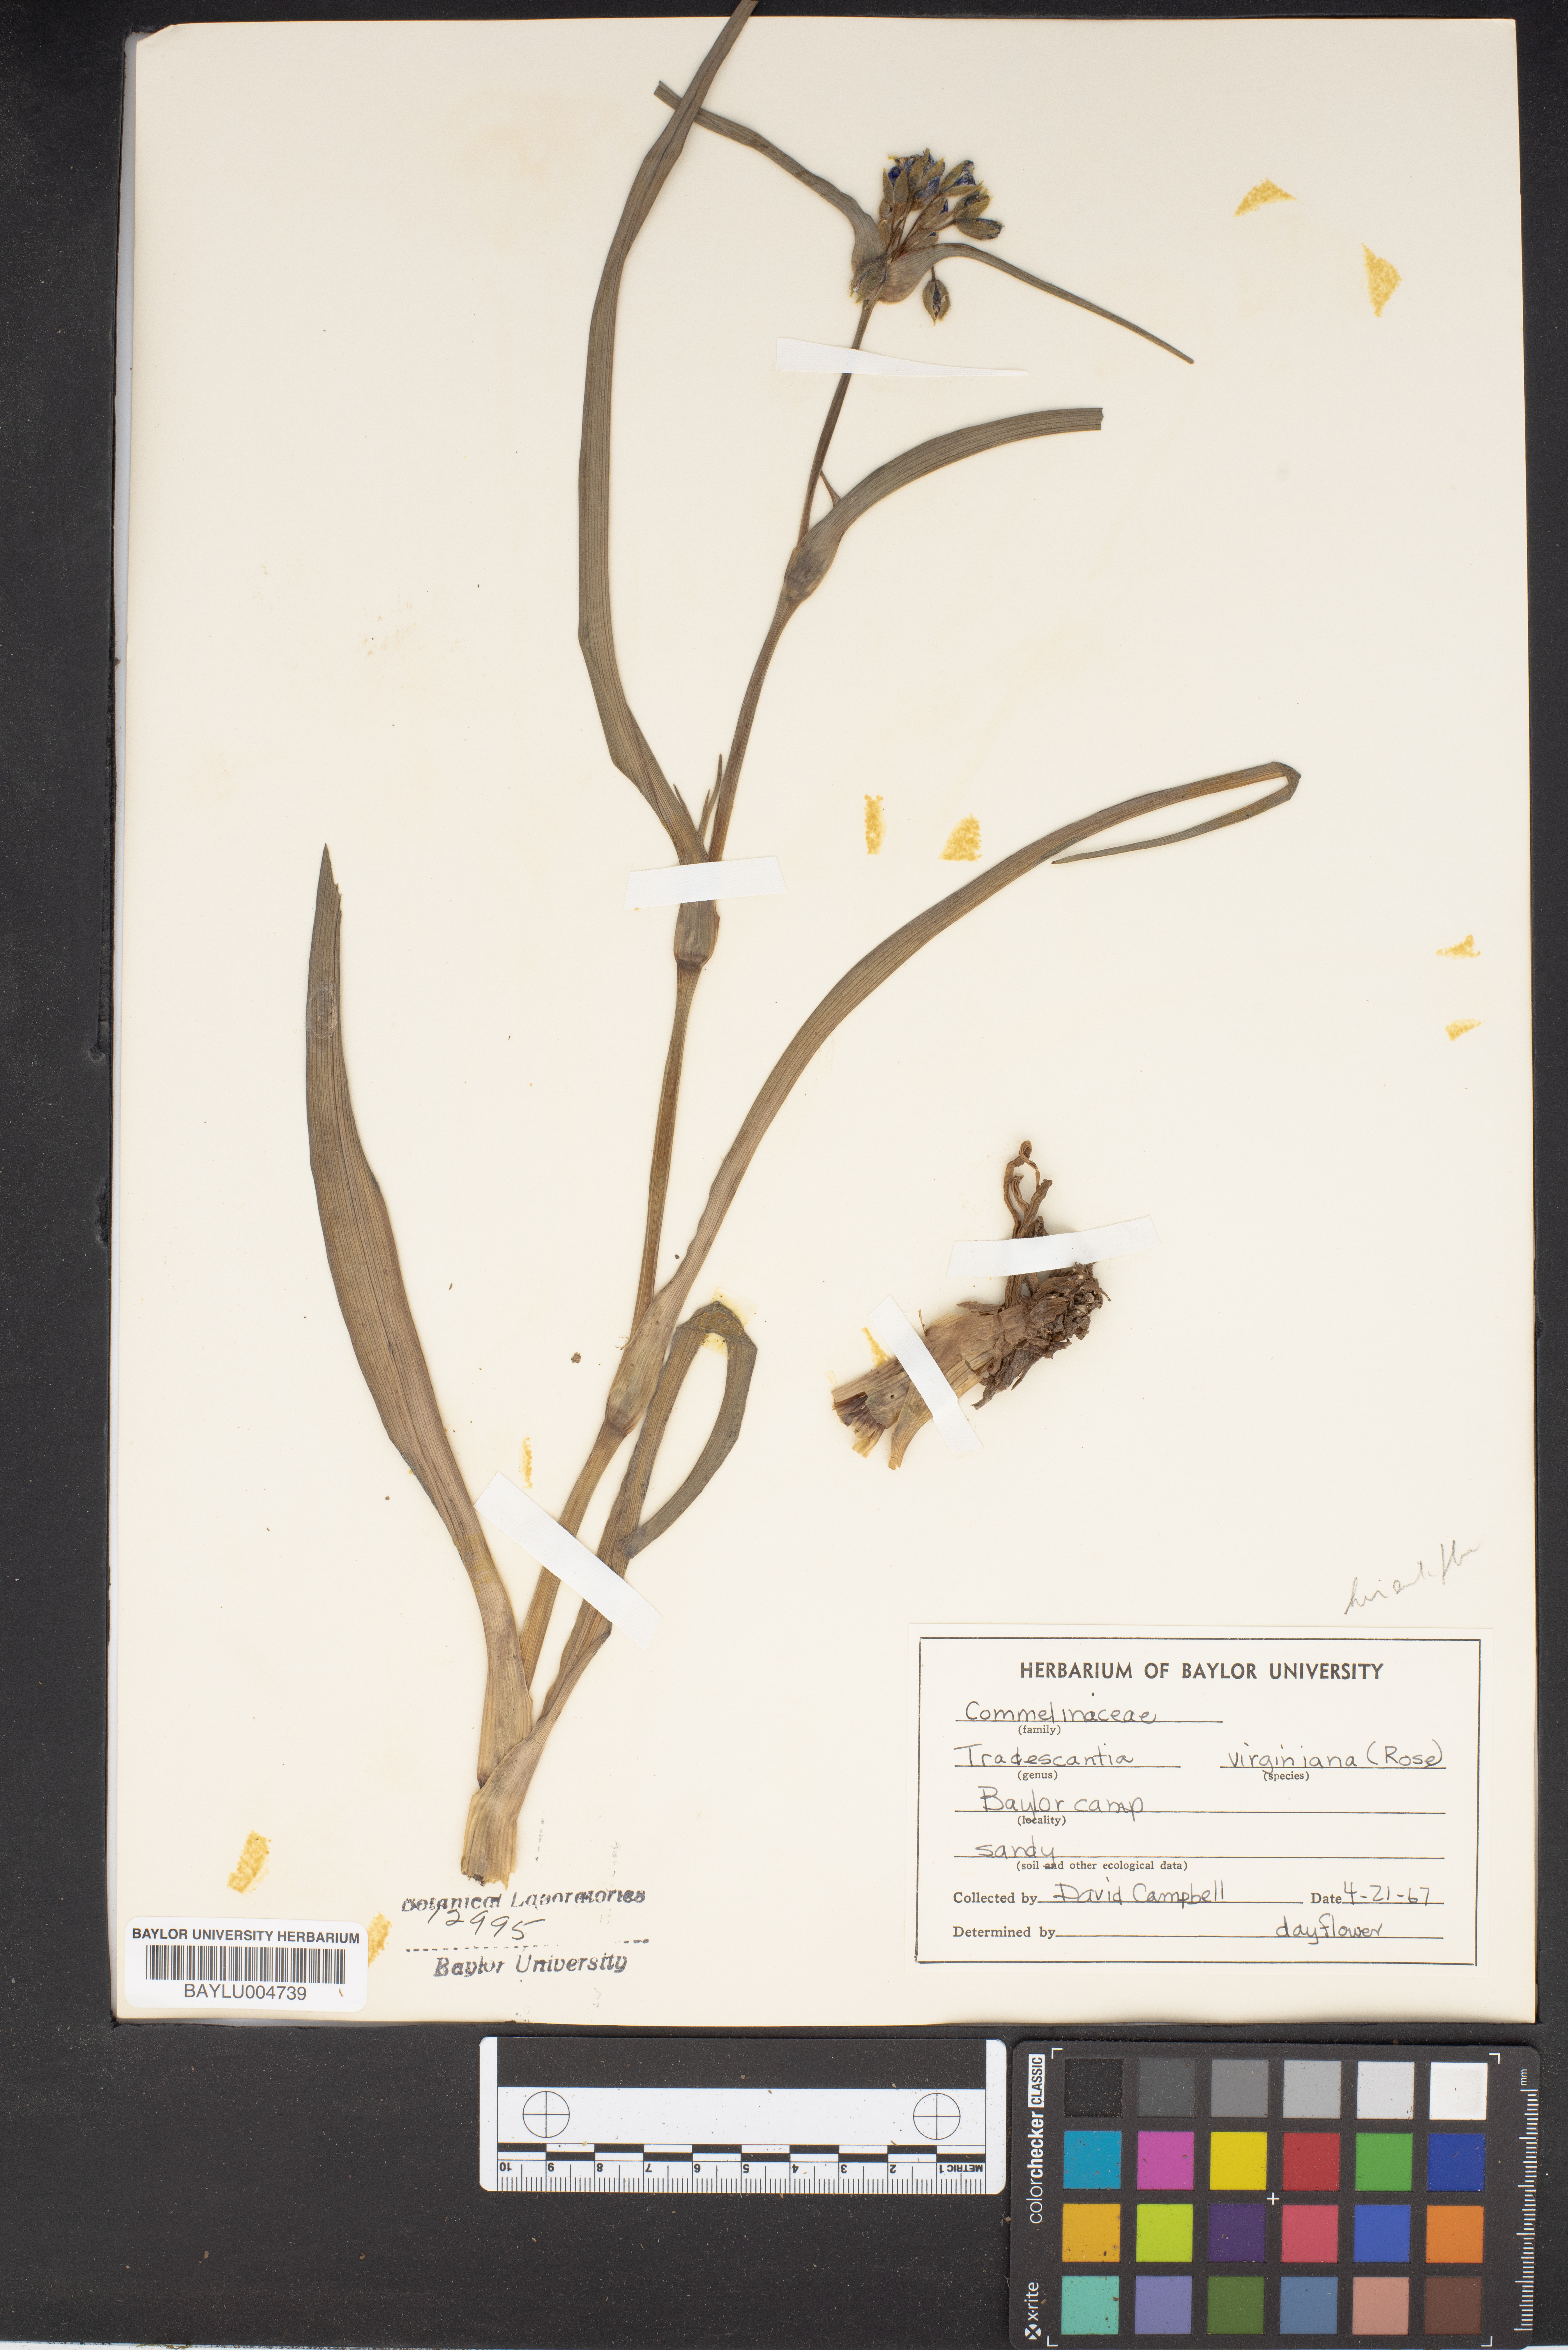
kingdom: Plantae
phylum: Tracheophyta
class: Liliopsida
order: Commelinales
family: Commelinaceae
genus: Tradescantia
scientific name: Tradescantia virginiana
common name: Spiderwort
